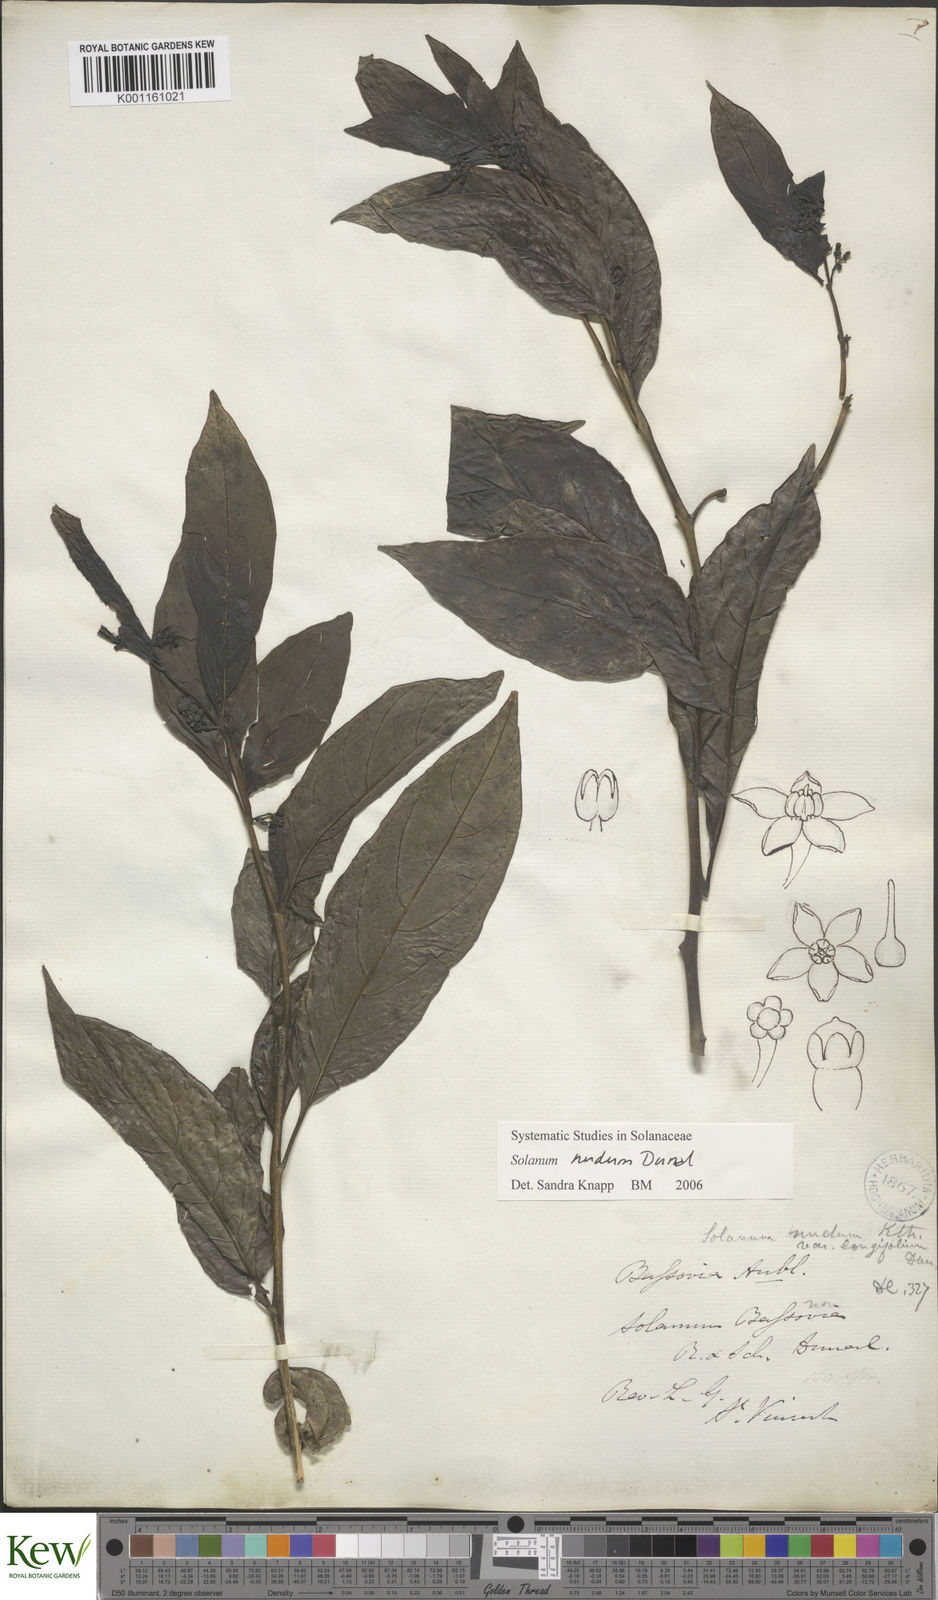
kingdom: Plantae
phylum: Tracheophyta
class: Magnoliopsida
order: Solanales
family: Solanaceae
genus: Solanum
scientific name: Solanum nudum
